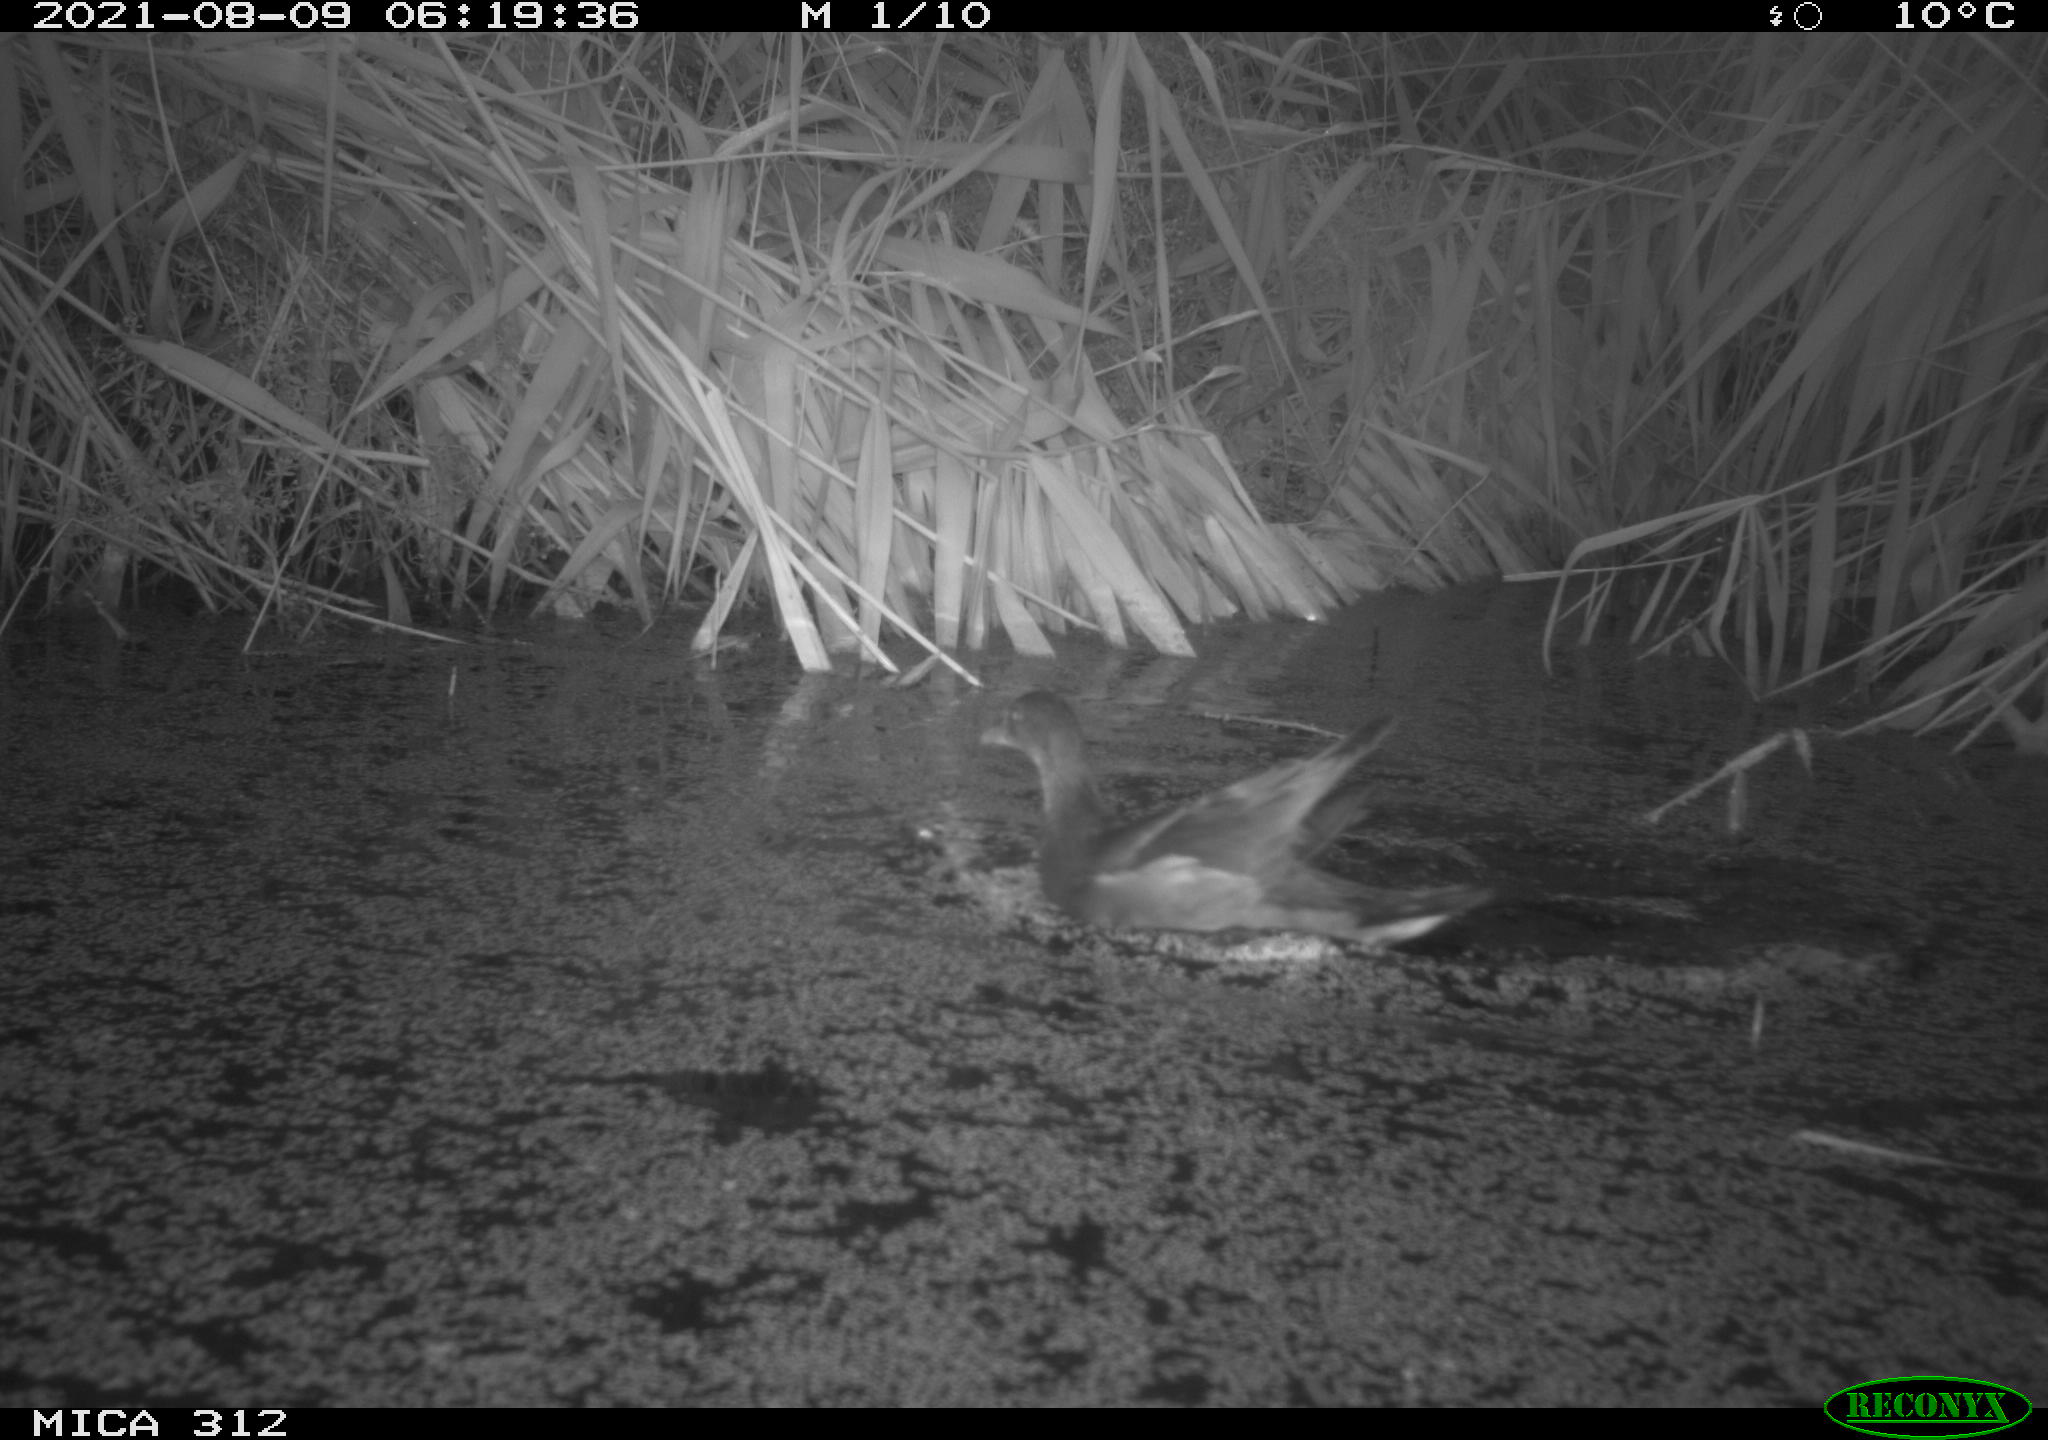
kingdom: Animalia
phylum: Chordata
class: Aves
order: Gruiformes
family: Rallidae
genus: Gallinula
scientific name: Gallinula chloropus
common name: Common moorhen
